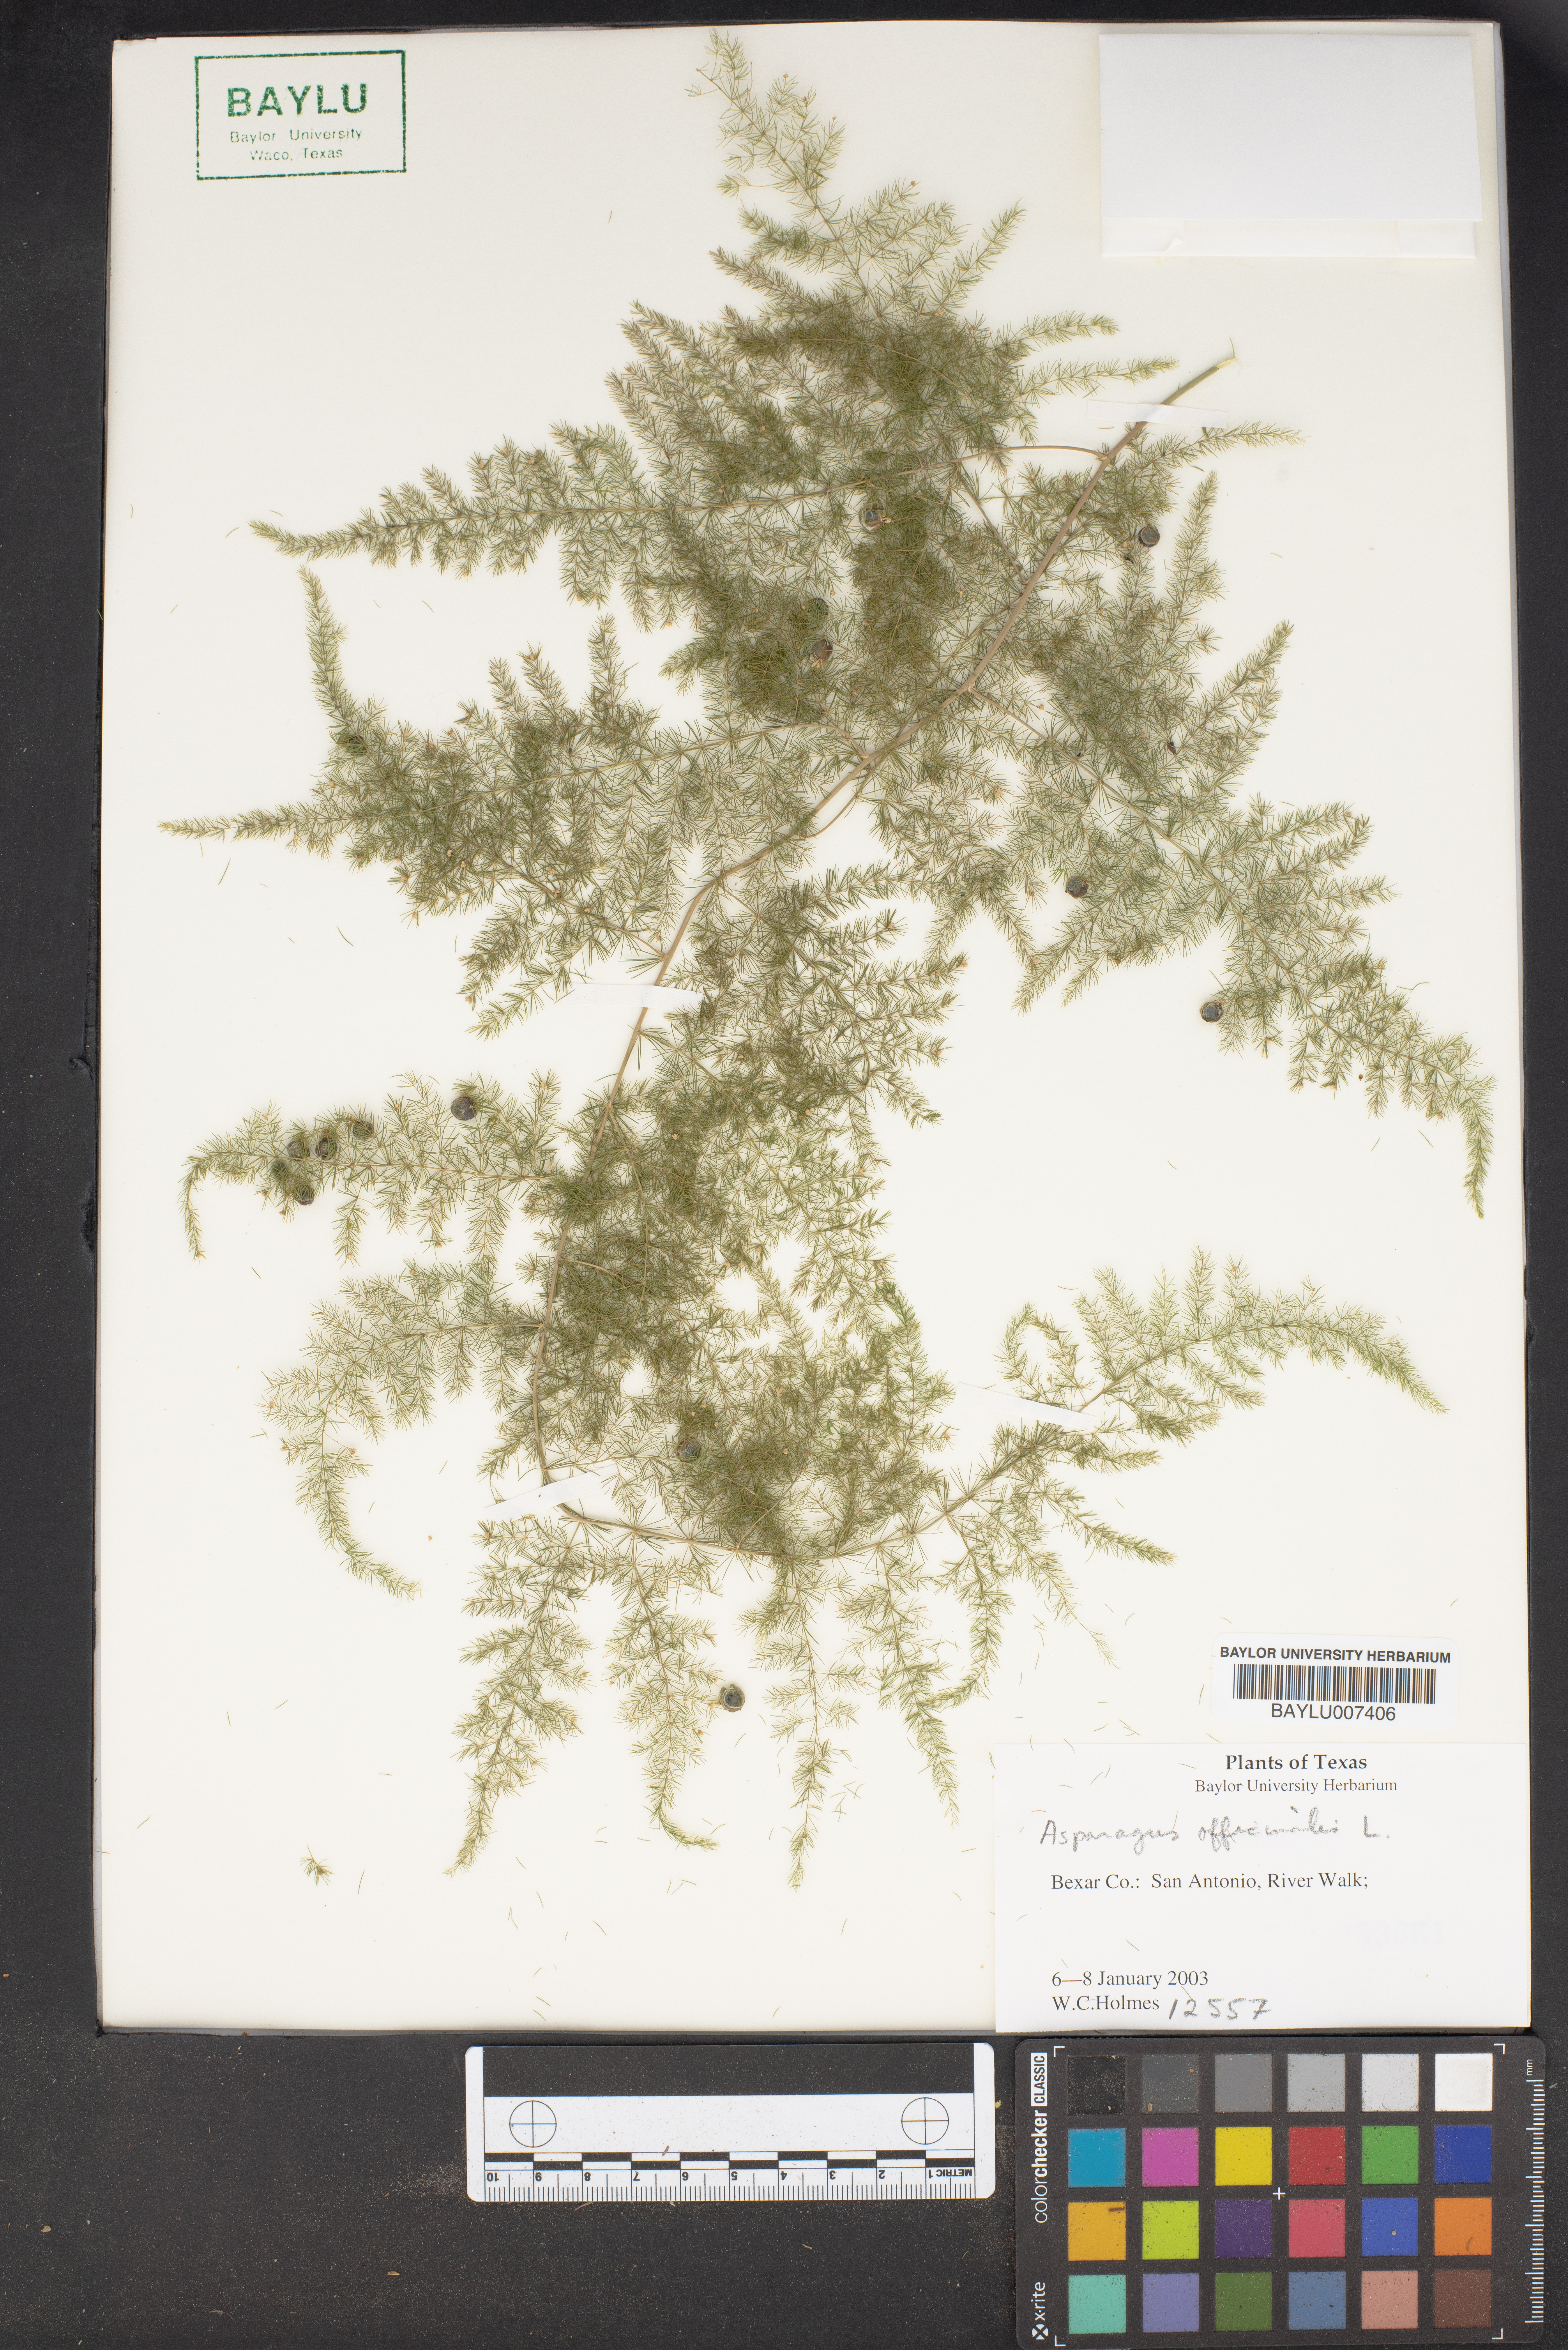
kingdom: Plantae
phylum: Tracheophyta
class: Liliopsida
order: Asparagales
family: Asparagaceae
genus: Asparagus
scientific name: Asparagus officinalis
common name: Garden asparagus
